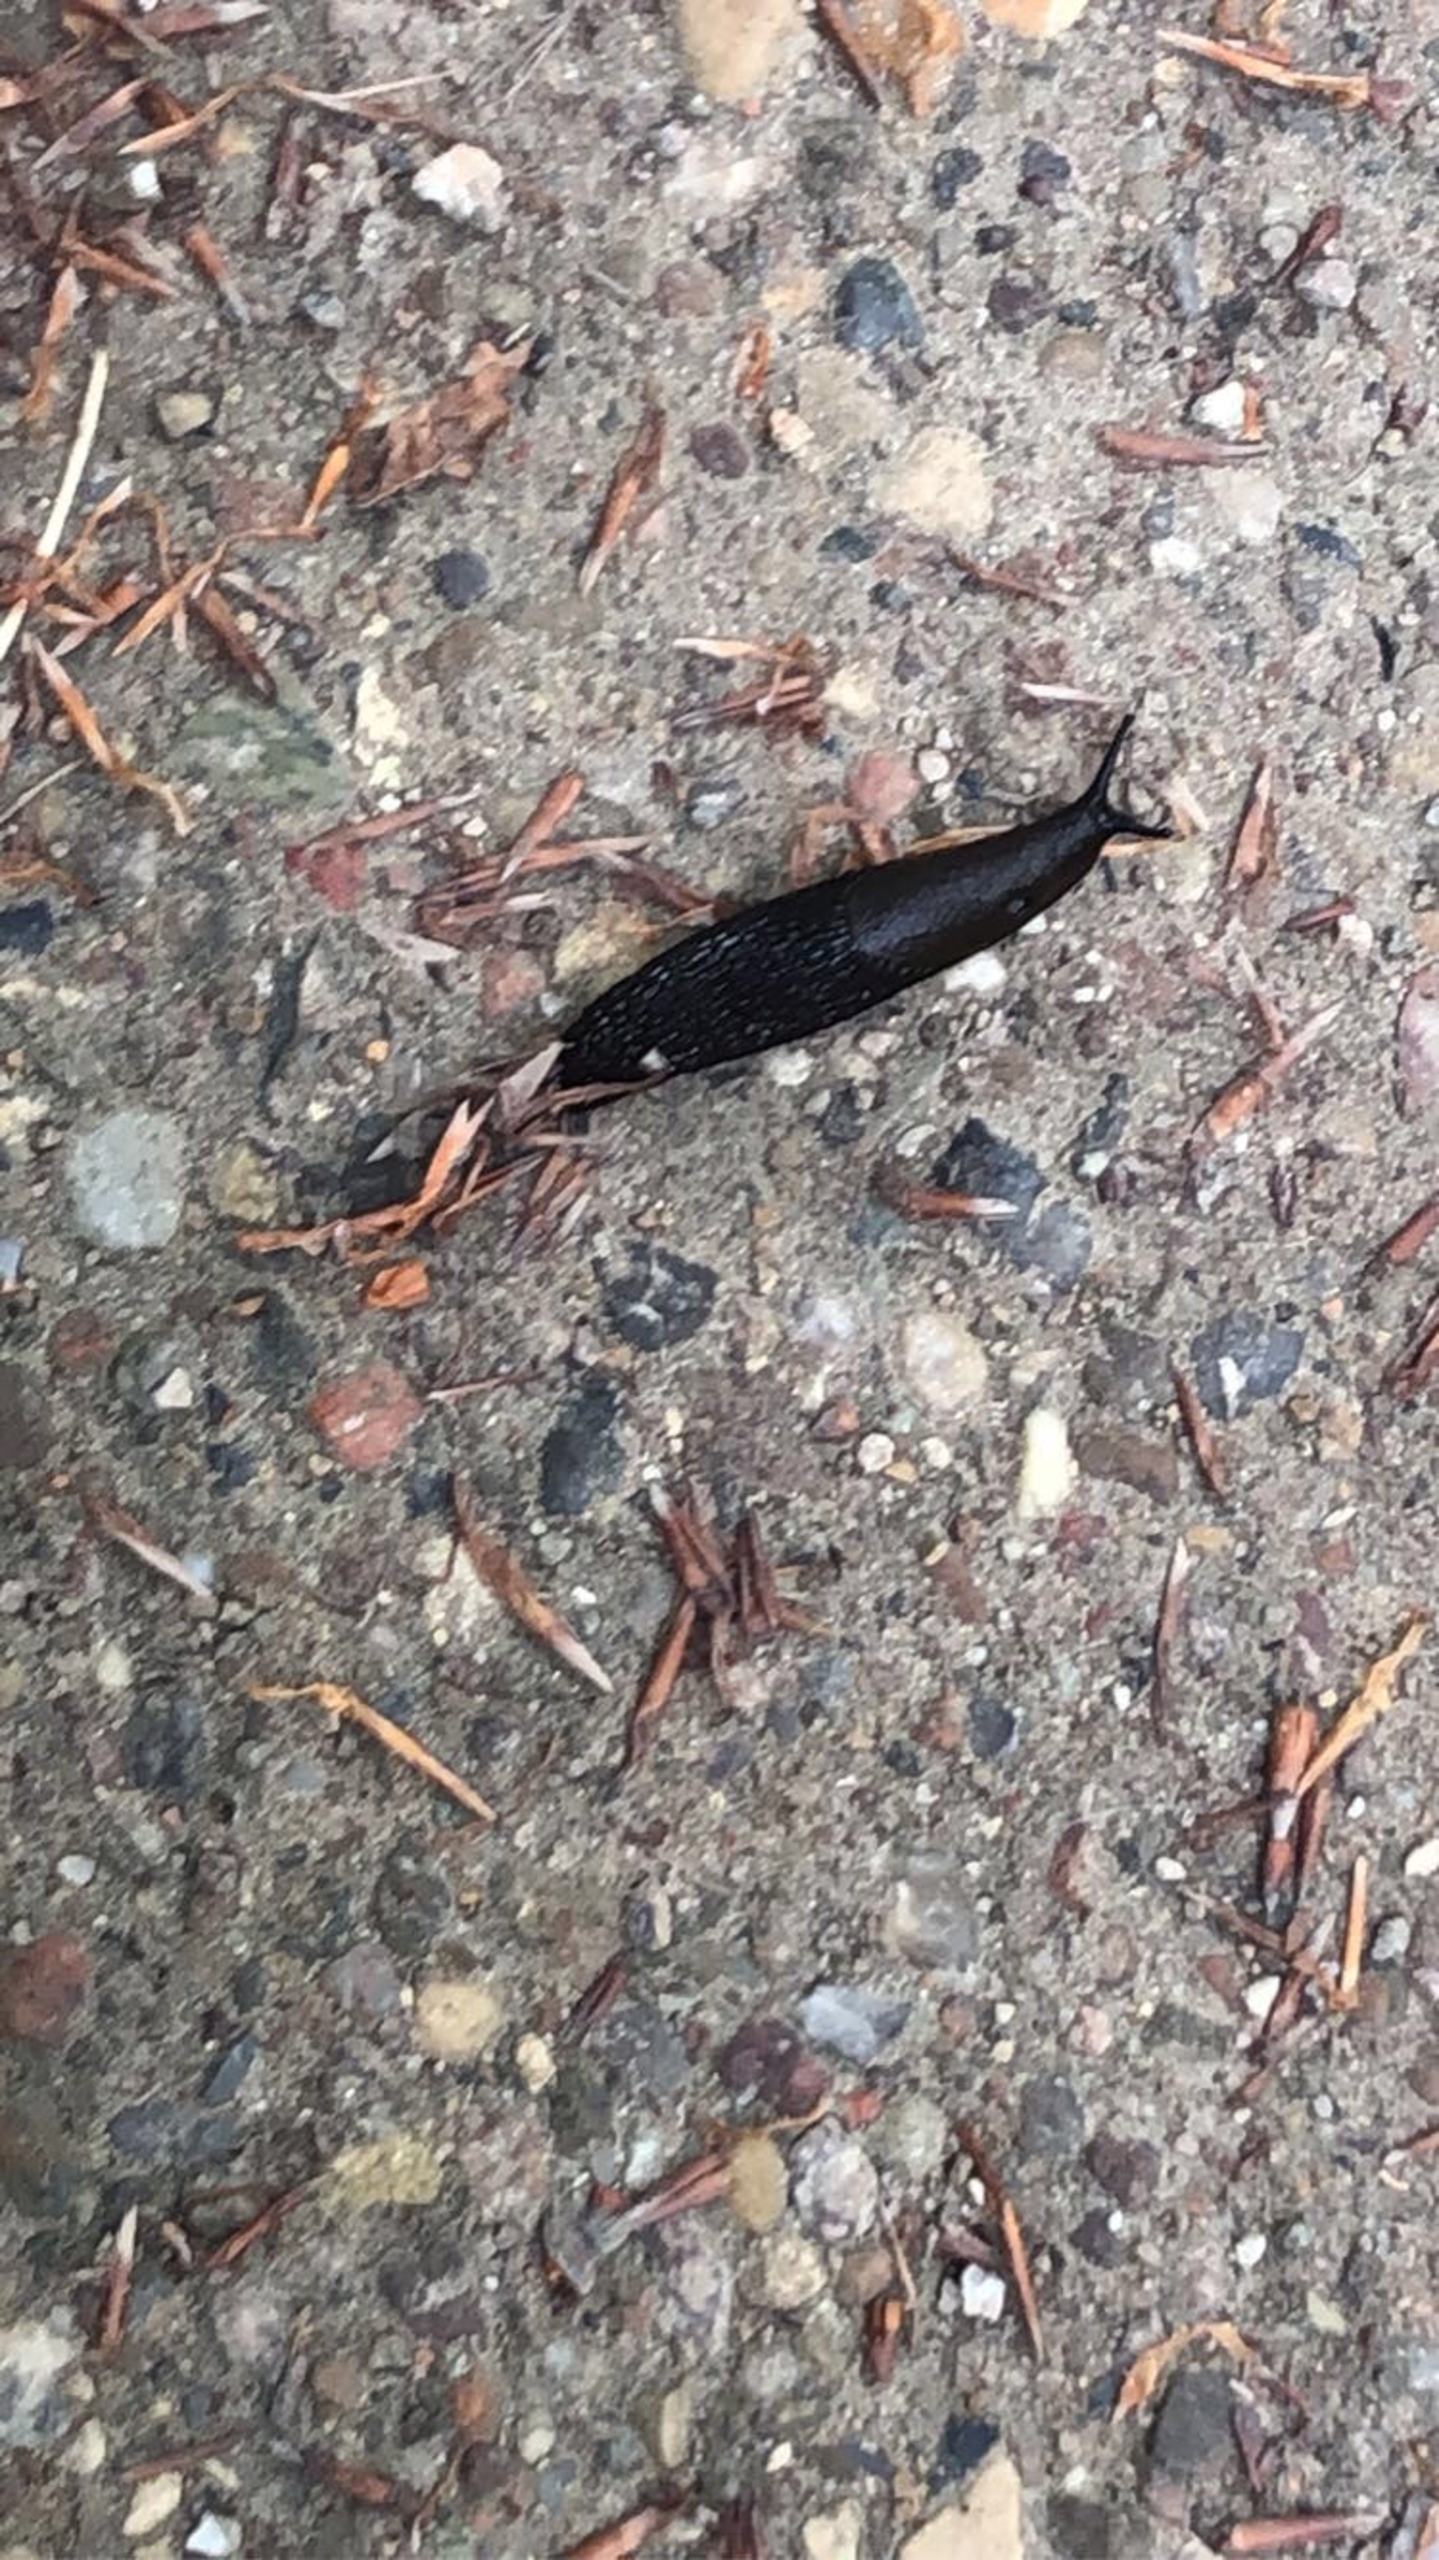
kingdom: Animalia
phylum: Mollusca
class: Gastropoda
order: Stylommatophora
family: Arionidae
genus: Arion
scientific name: Arion ater
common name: Sort skovsnegl
